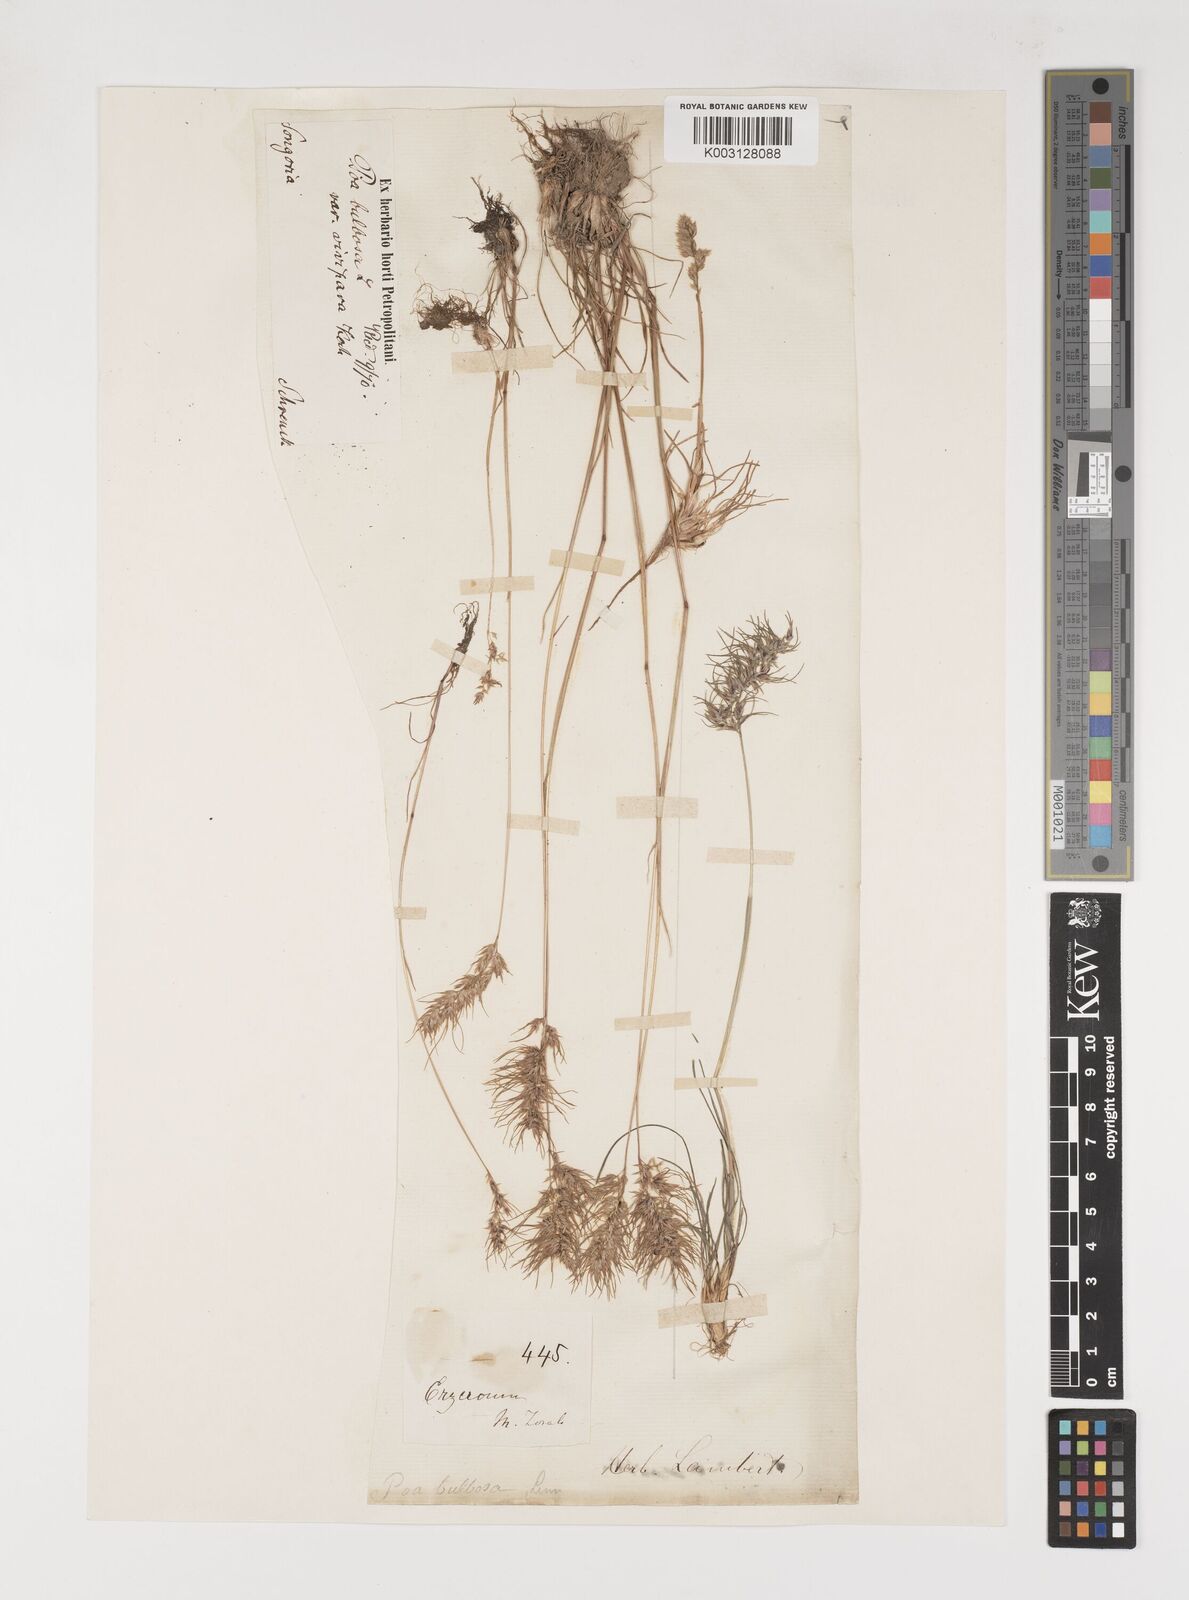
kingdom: Plantae
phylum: Tracheophyta
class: Liliopsida
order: Poales
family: Poaceae
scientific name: Poaceae
